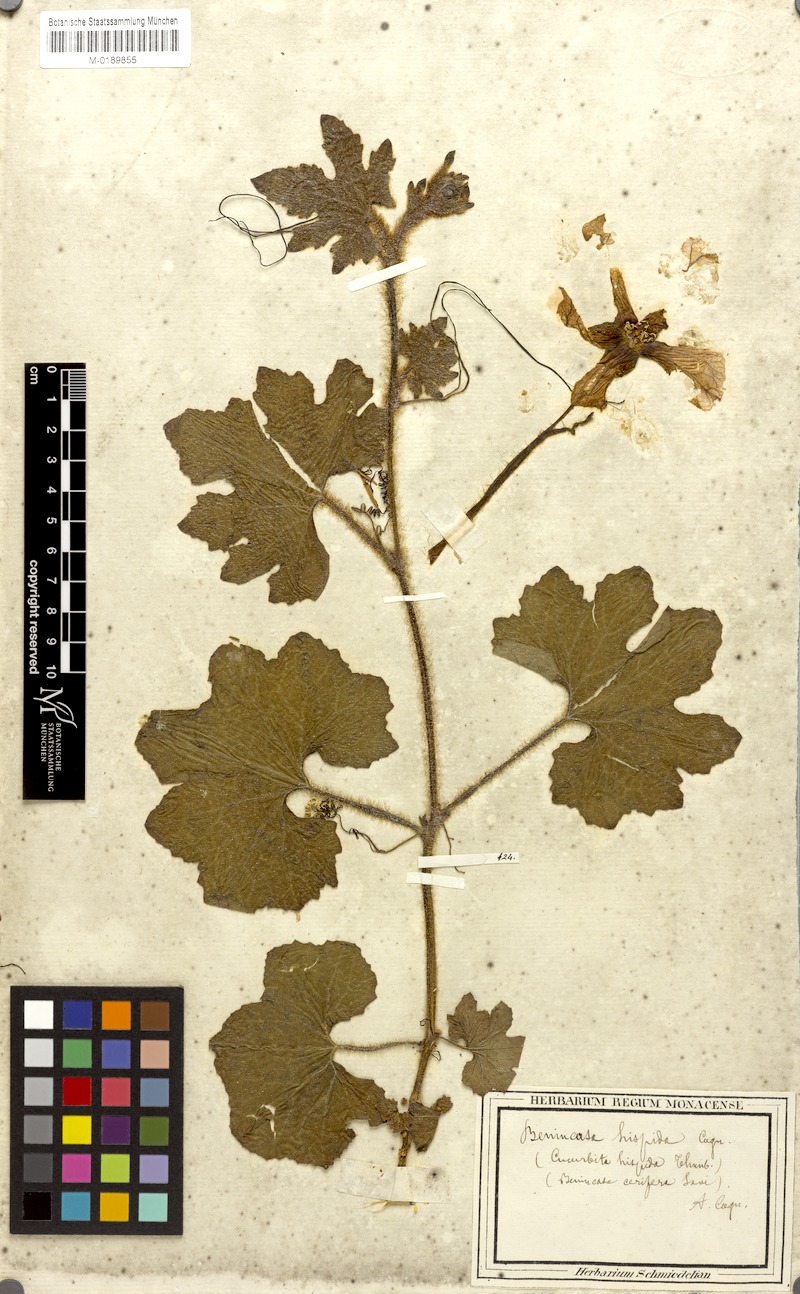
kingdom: Plantae
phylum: Tracheophyta
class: Magnoliopsida
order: Cucurbitales
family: Cucurbitaceae
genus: Benincasa
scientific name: Benincasa hispida
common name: Chinese-watermelon
